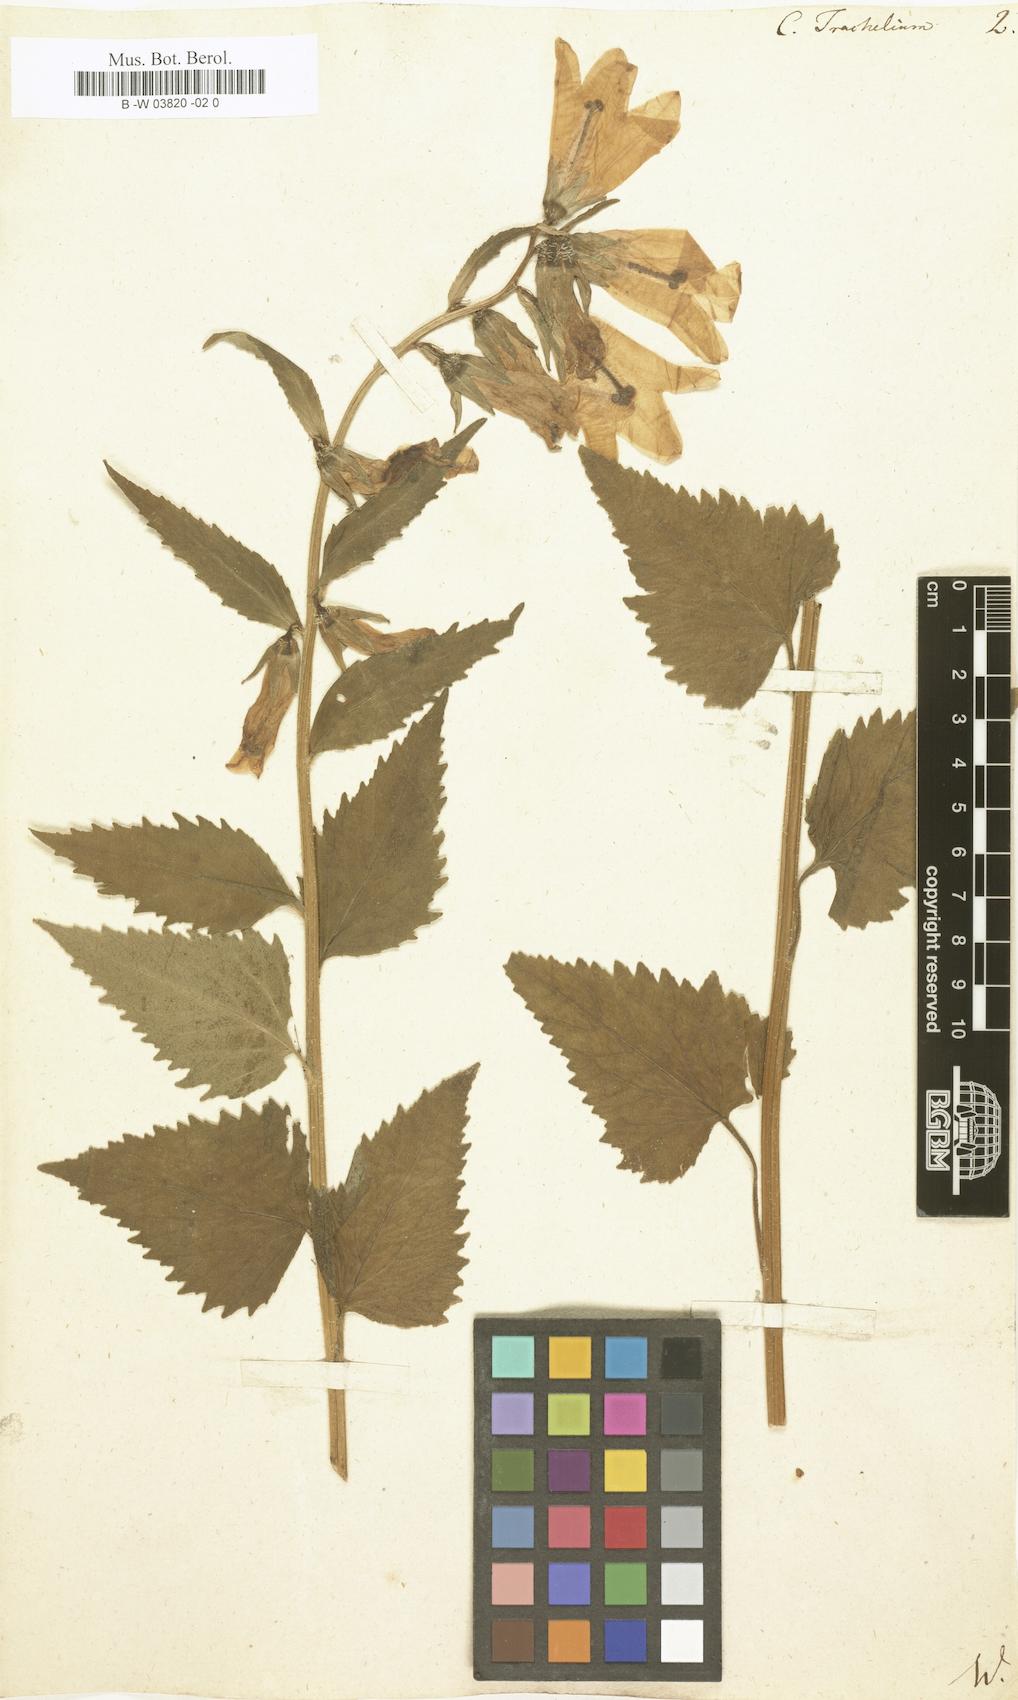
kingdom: Plantae
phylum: Tracheophyta
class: Magnoliopsida
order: Asterales
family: Campanulaceae
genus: Campanula
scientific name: Campanula trachelium
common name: Nettle-leaved bellflower
